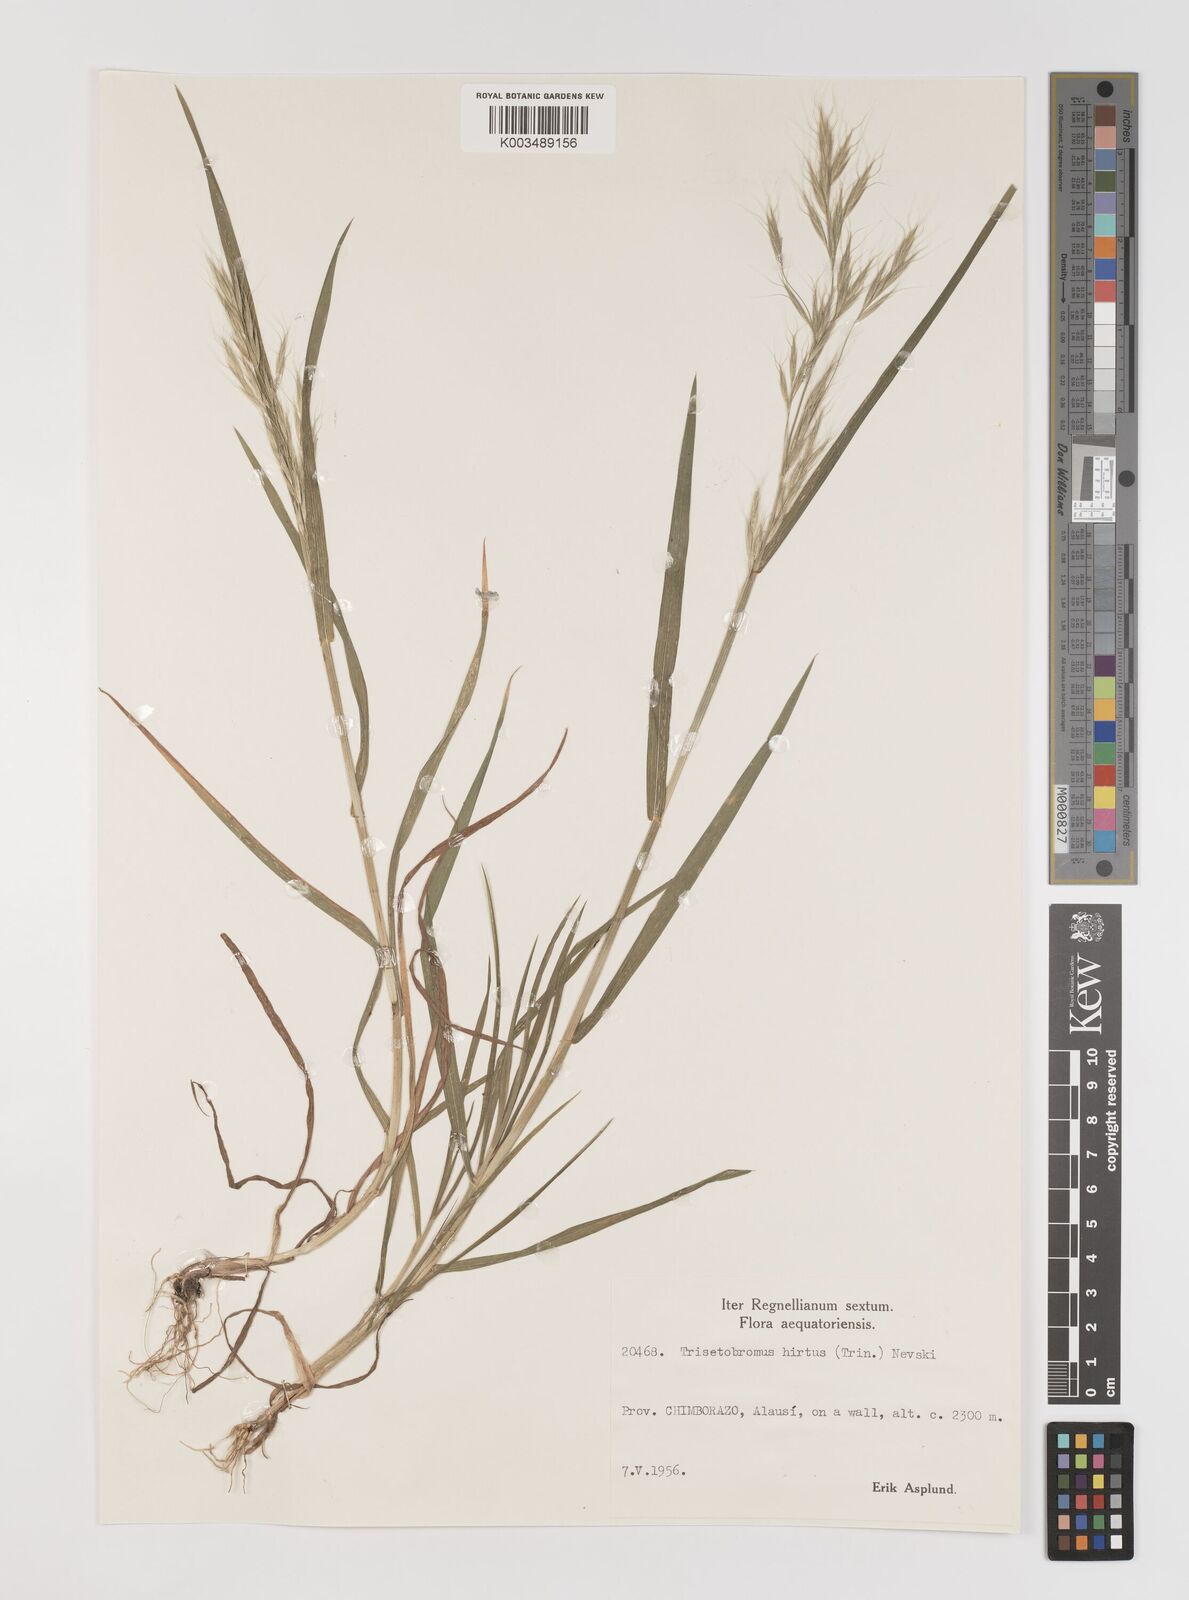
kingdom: Plantae
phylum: Tracheophyta
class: Liliopsida
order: Poales
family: Poaceae
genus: Bromus
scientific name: Bromus berteroanus
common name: Chilean chess
